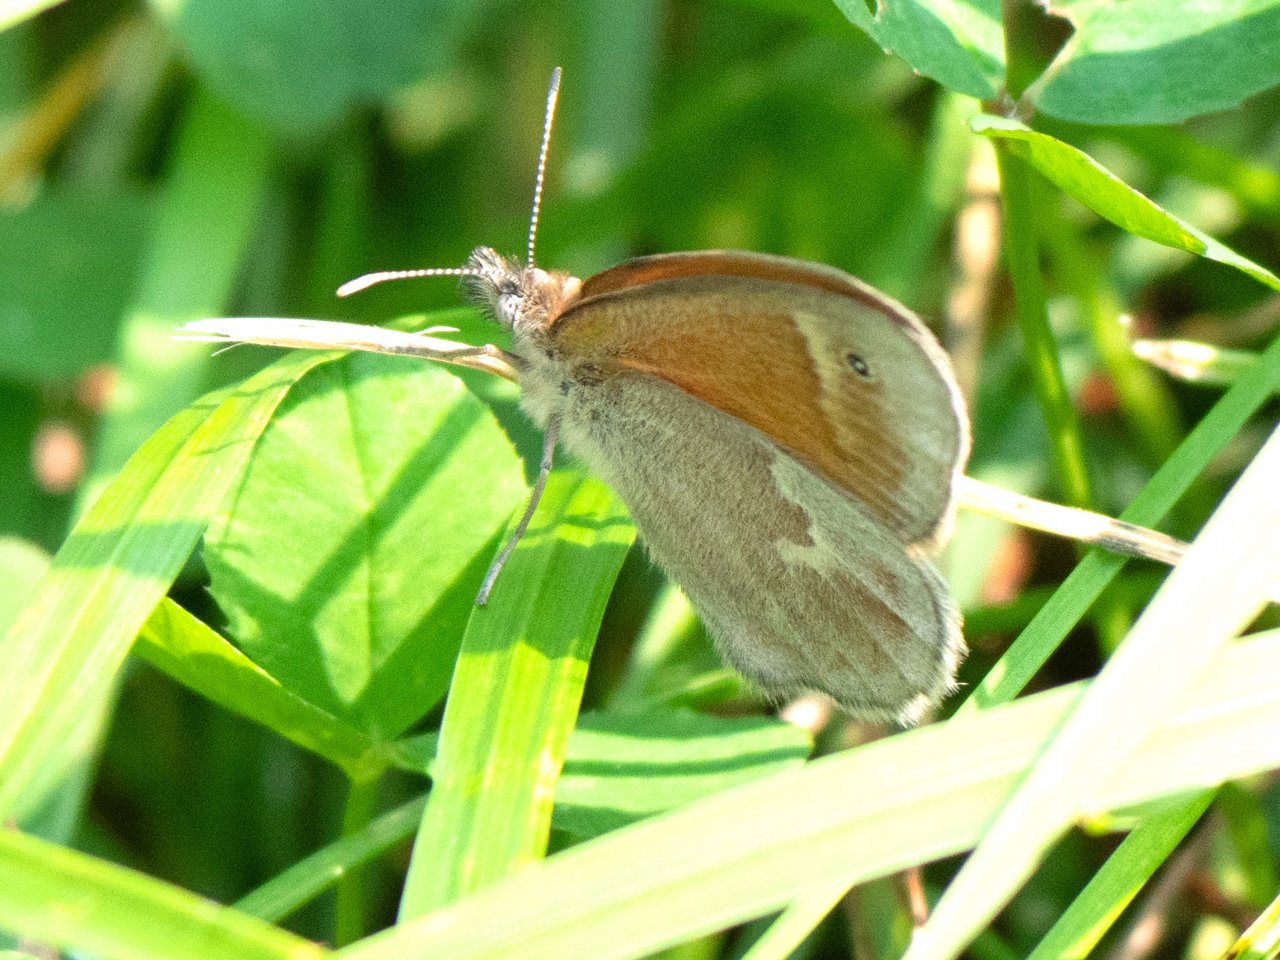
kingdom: Animalia
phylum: Arthropoda
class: Insecta
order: Lepidoptera
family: Nymphalidae
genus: Coenonympha
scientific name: Coenonympha tullia
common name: Large Heath
